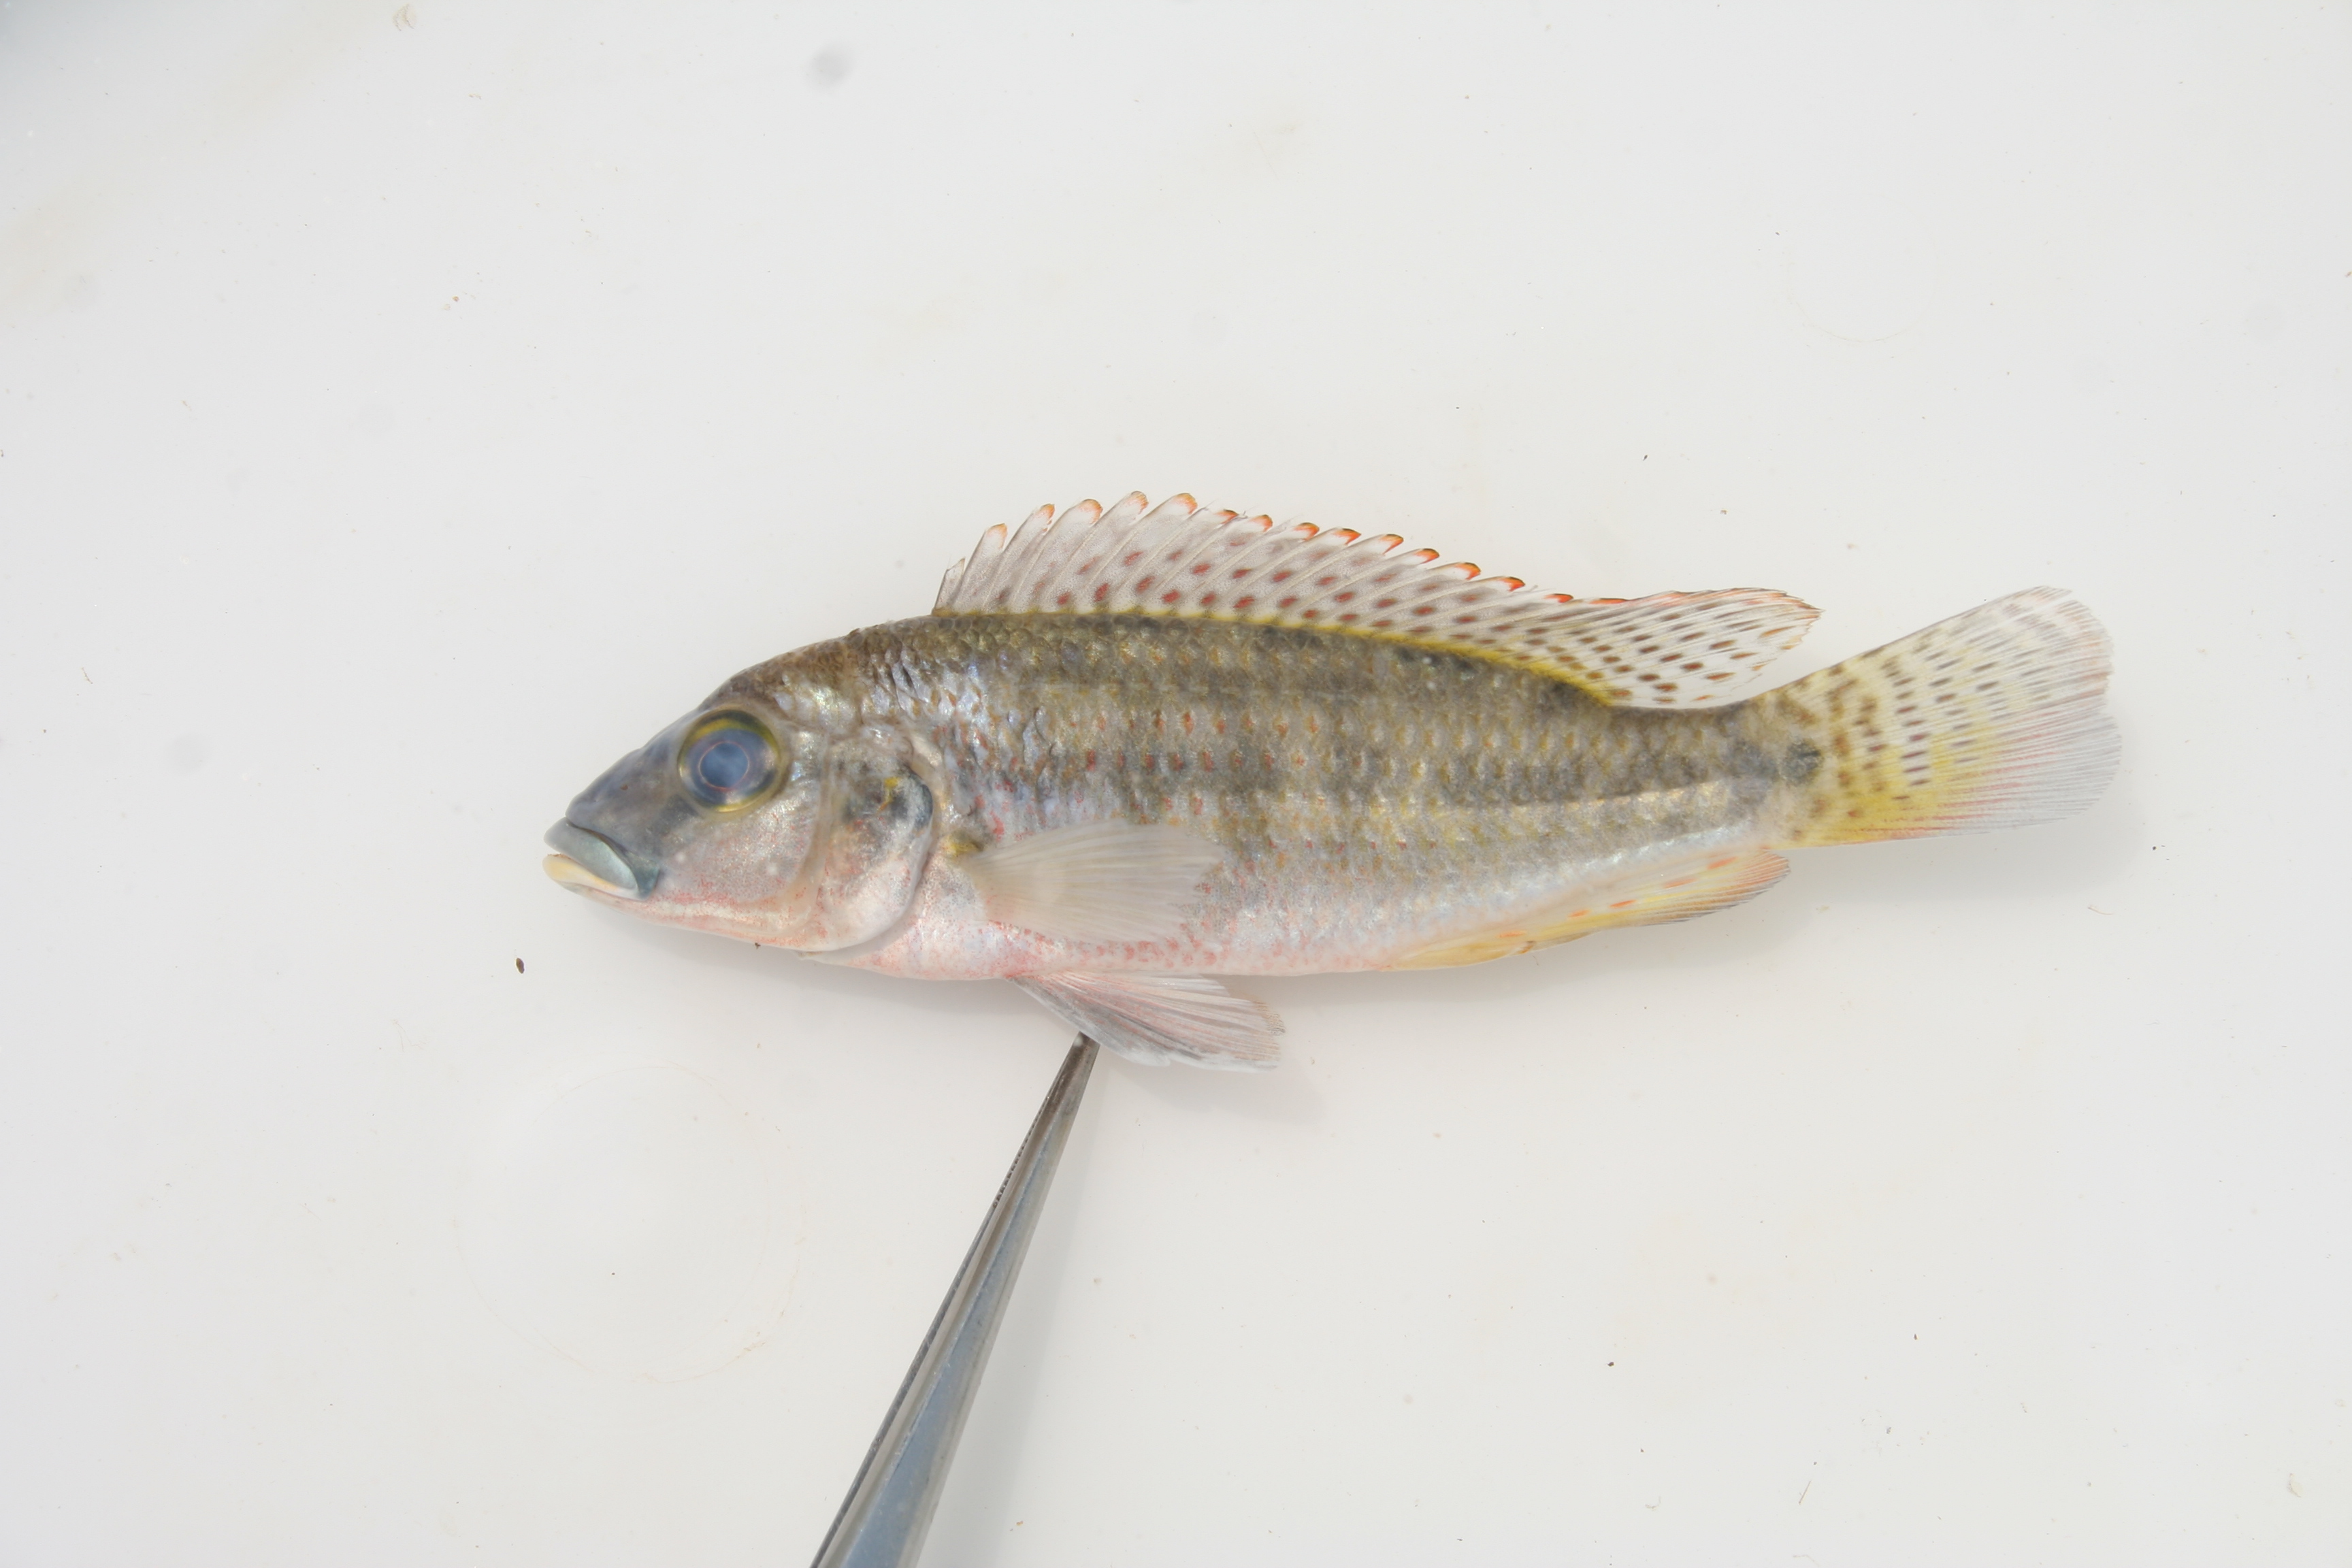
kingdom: Animalia
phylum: Chordata
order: Perciformes
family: Cichlidae
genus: Pharyngochromis
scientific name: Pharyngochromis
